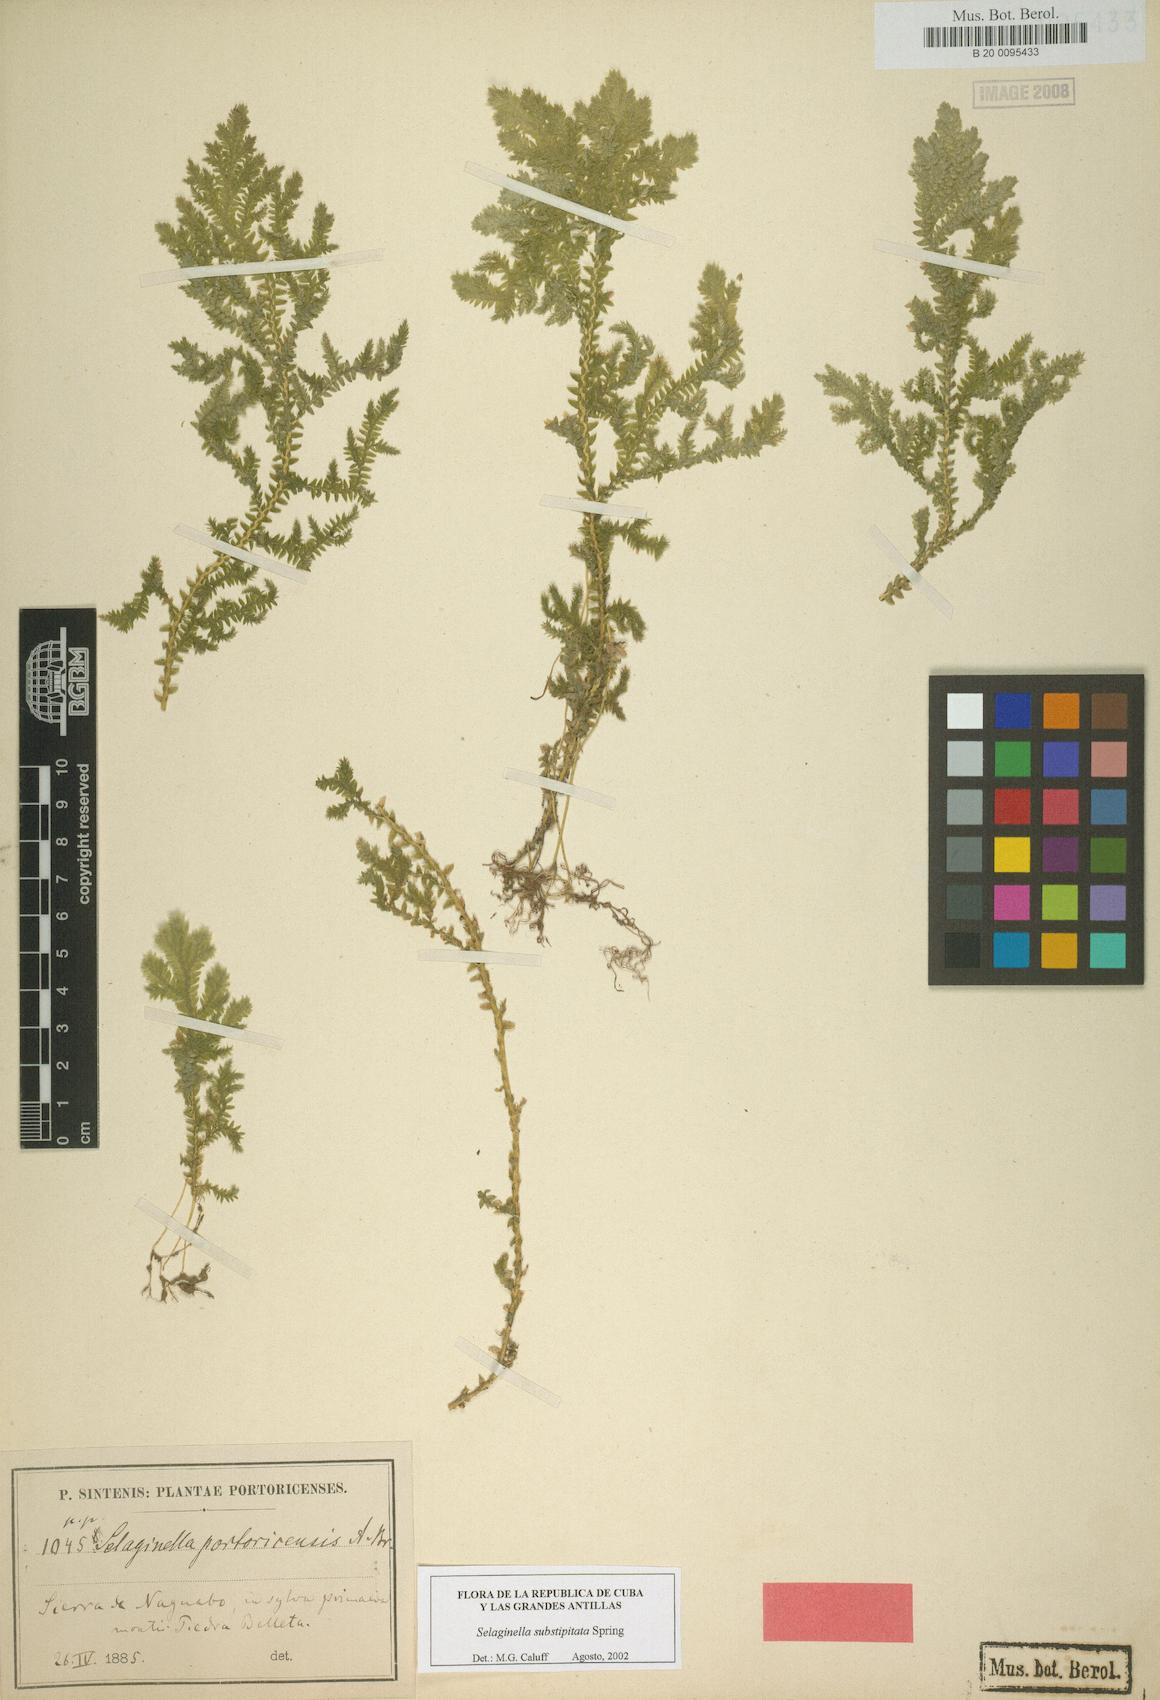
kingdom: Plantae
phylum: Tracheophyta
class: Lycopodiopsida
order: Selaginellales
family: Selaginellaceae
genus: Selaginella
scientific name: Selaginella substipitata
